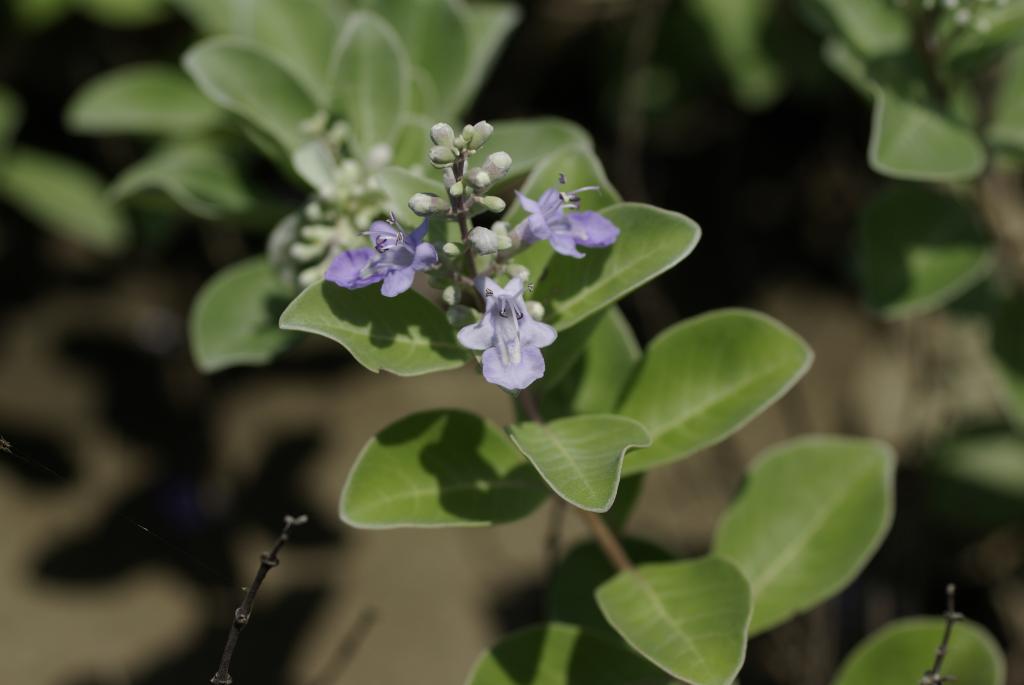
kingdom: Plantae
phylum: Tracheophyta
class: Magnoliopsida
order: Lamiales
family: Lamiaceae
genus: Vitex
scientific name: Vitex rotundifolia
